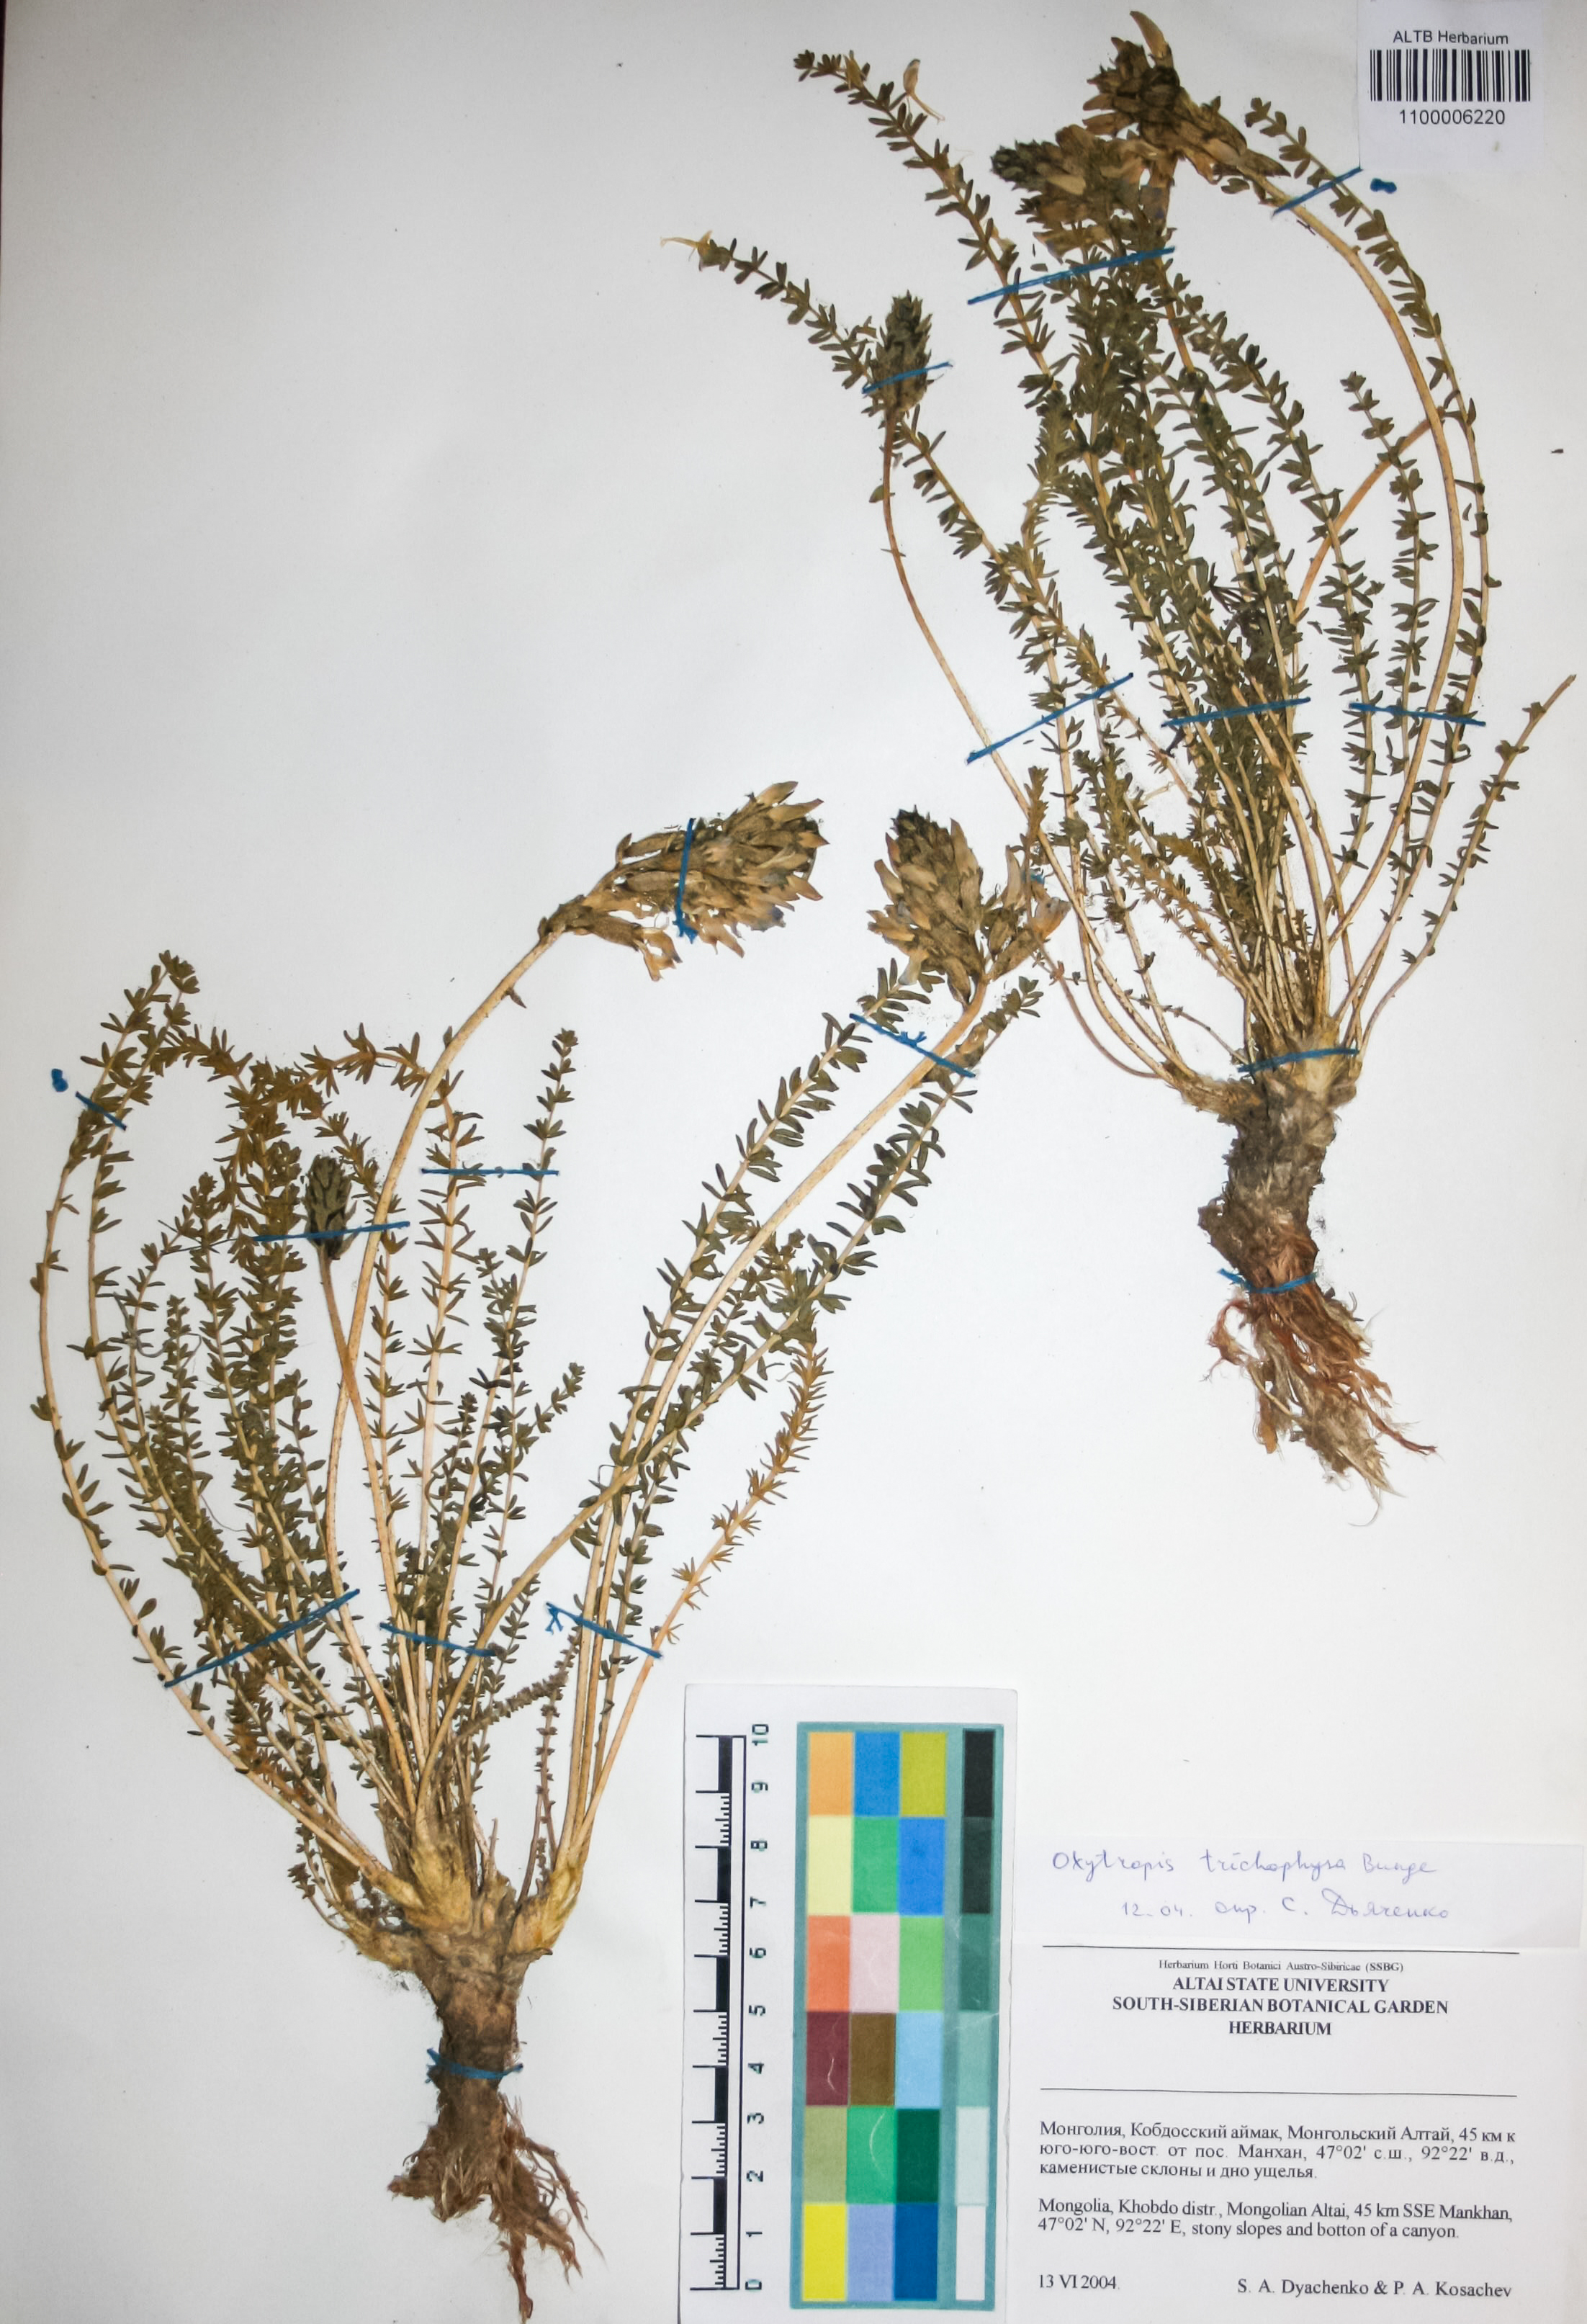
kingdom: Plantae
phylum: Tracheophyta
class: Magnoliopsida
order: Fabales
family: Fabaceae
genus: Oxytropis
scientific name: Oxytropis trichophysa
